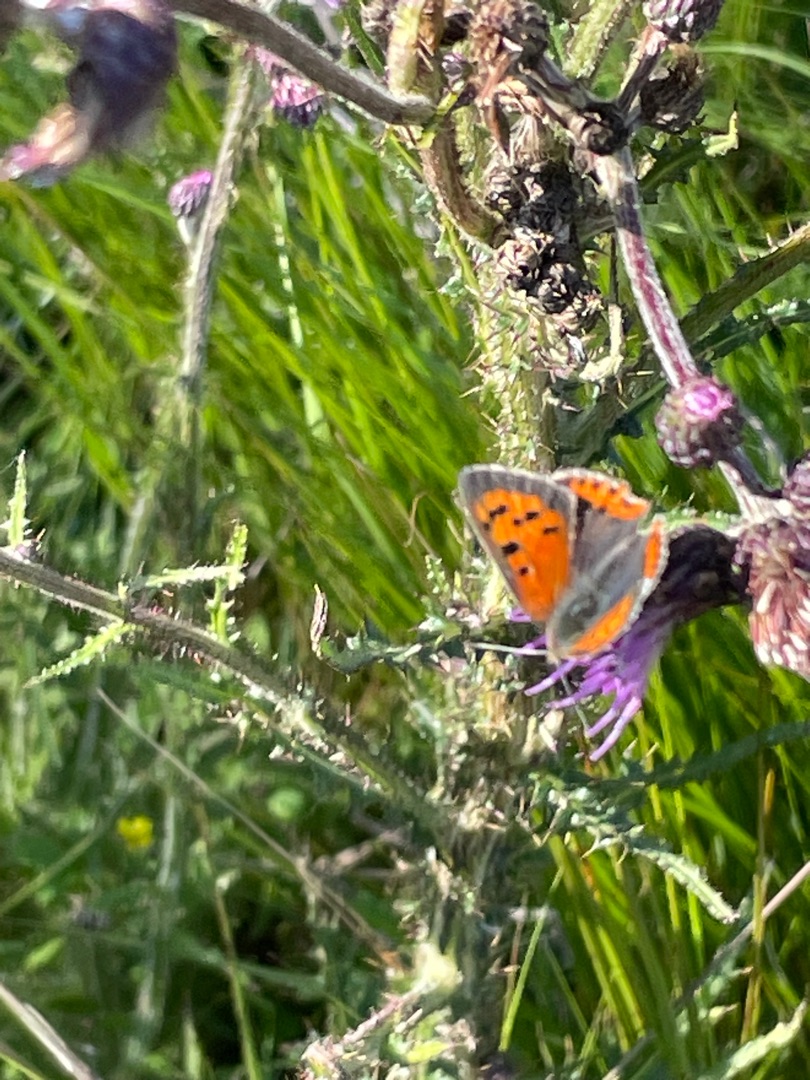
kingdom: Animalia
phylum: Arthropoda
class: Insecta
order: Lepidoptera
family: Lycaenidae
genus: Lycaena
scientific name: Lycaena phlaeas
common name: Lille ildfugl
